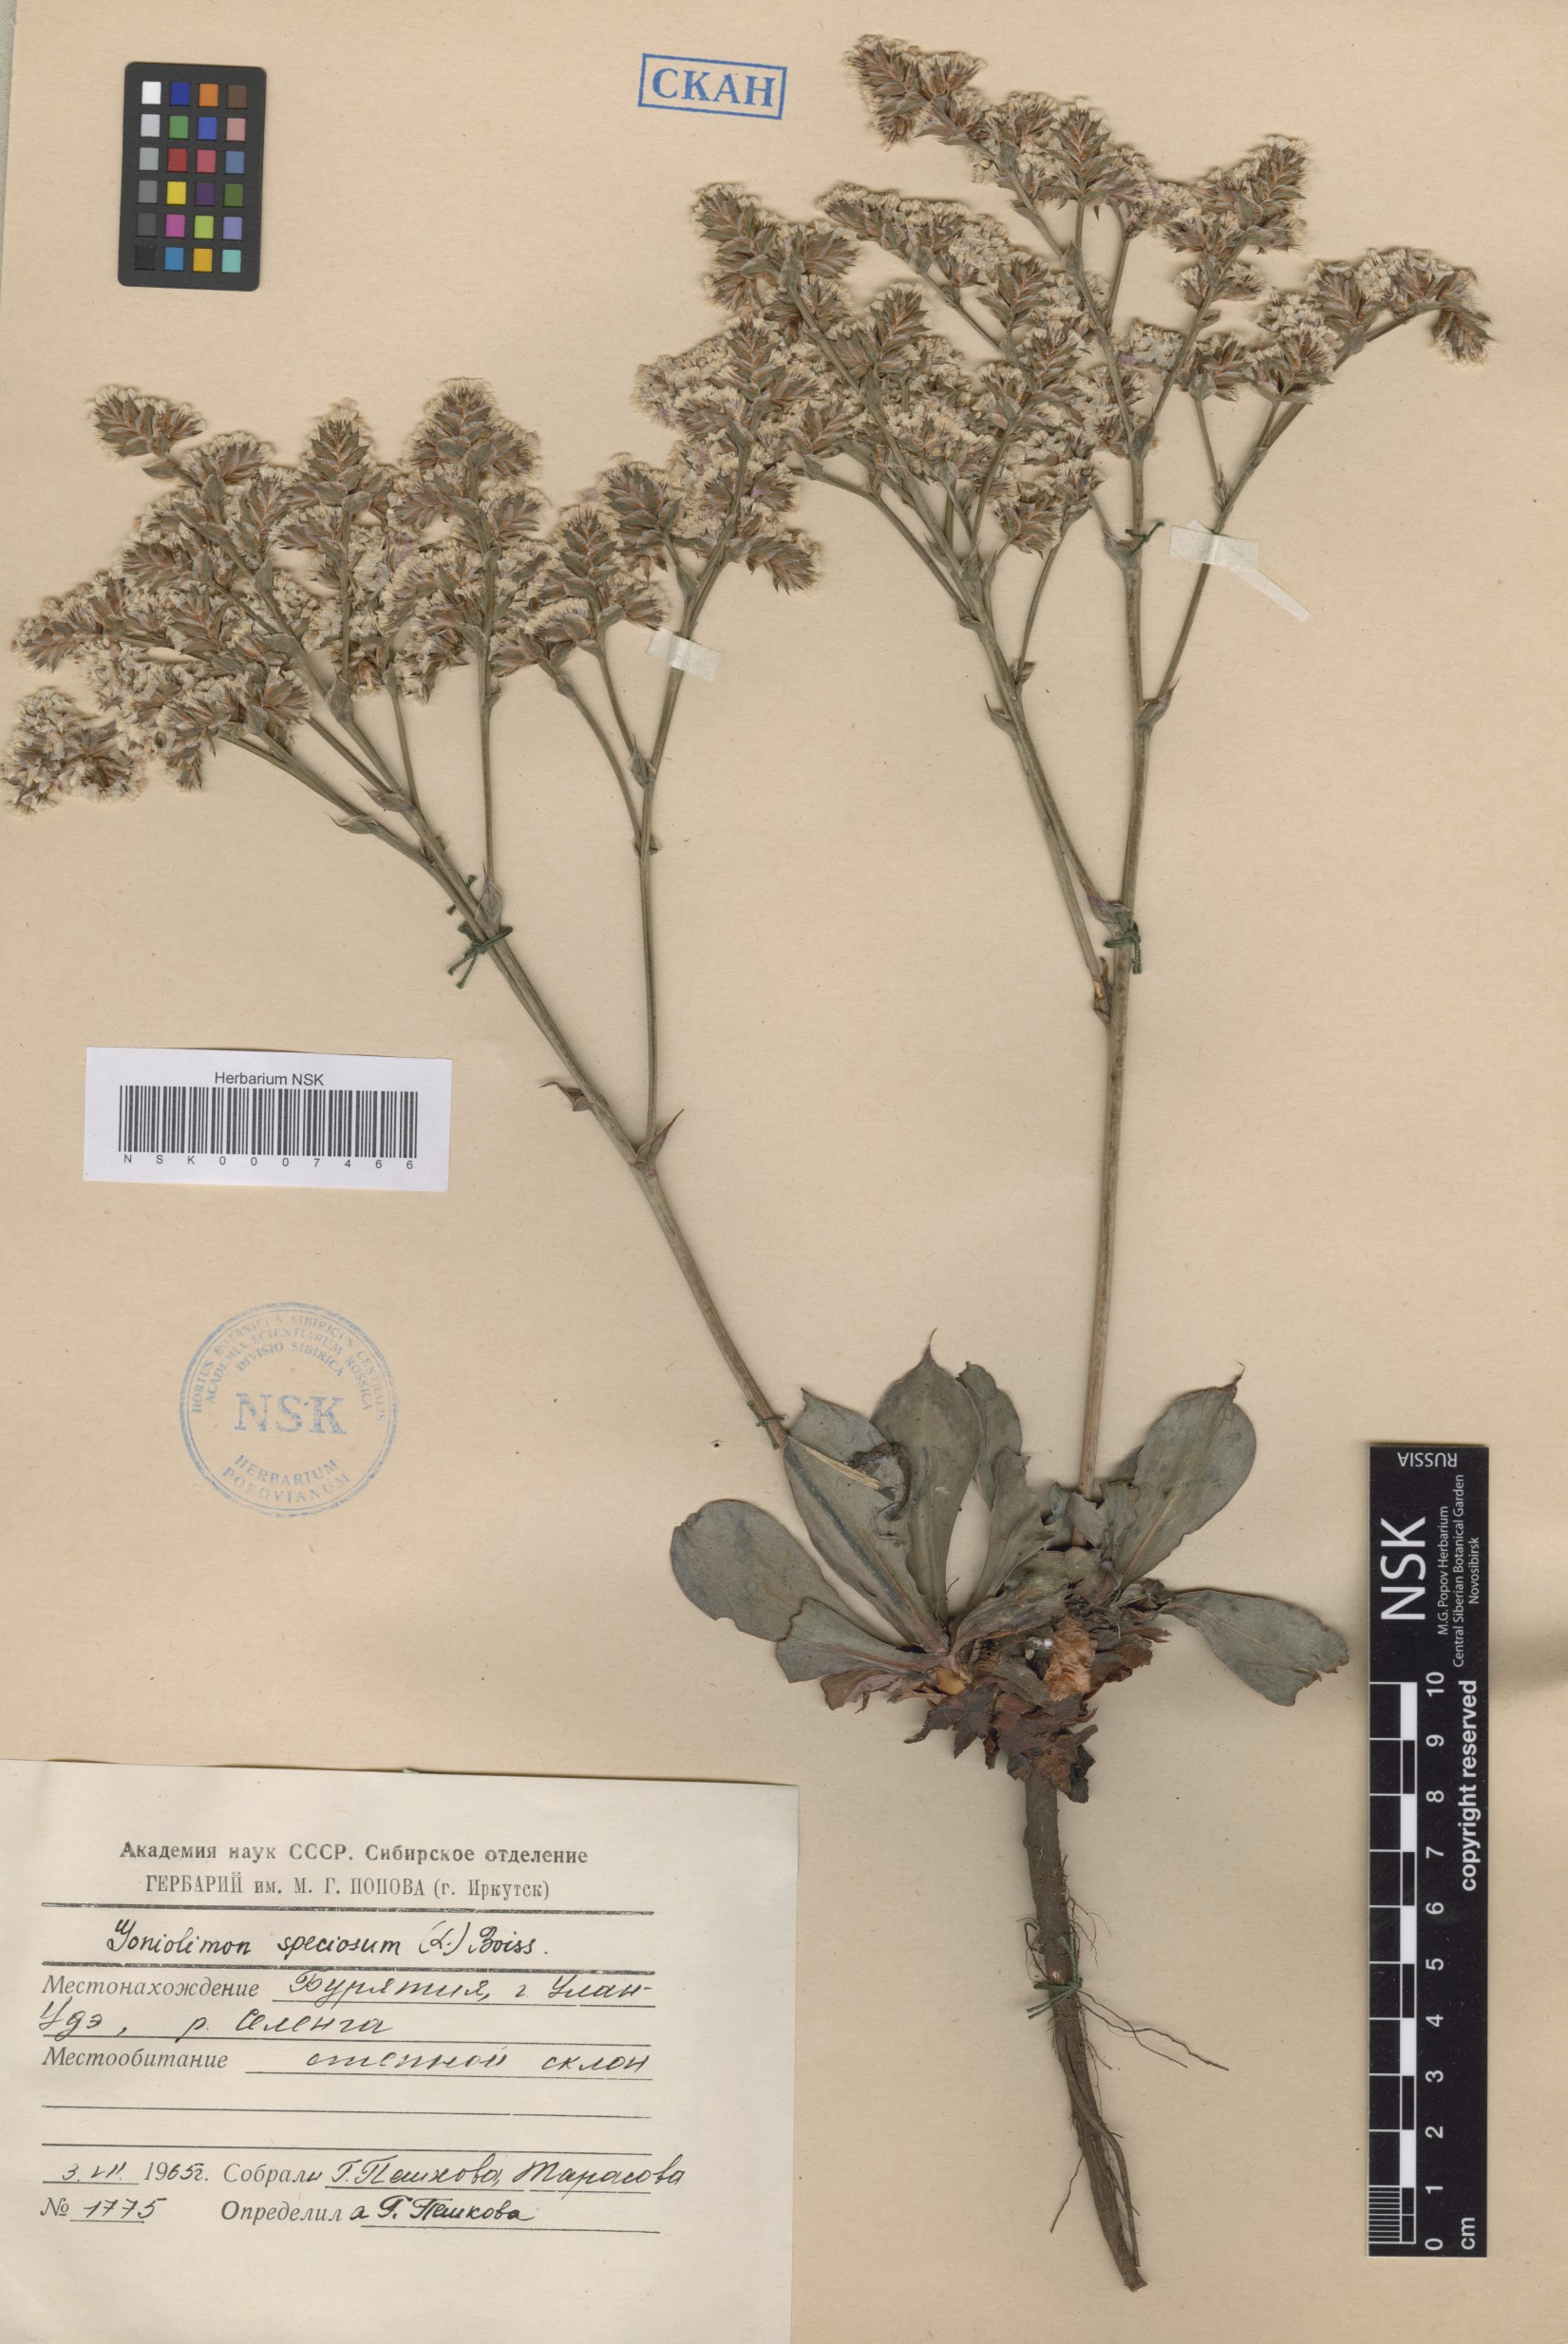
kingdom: Plantae
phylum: Tracheophyta
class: Magnoliopsida
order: Caryophyllales
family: Plumbaginaceae
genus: Goniolimon
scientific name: Goniolimon speciosum
